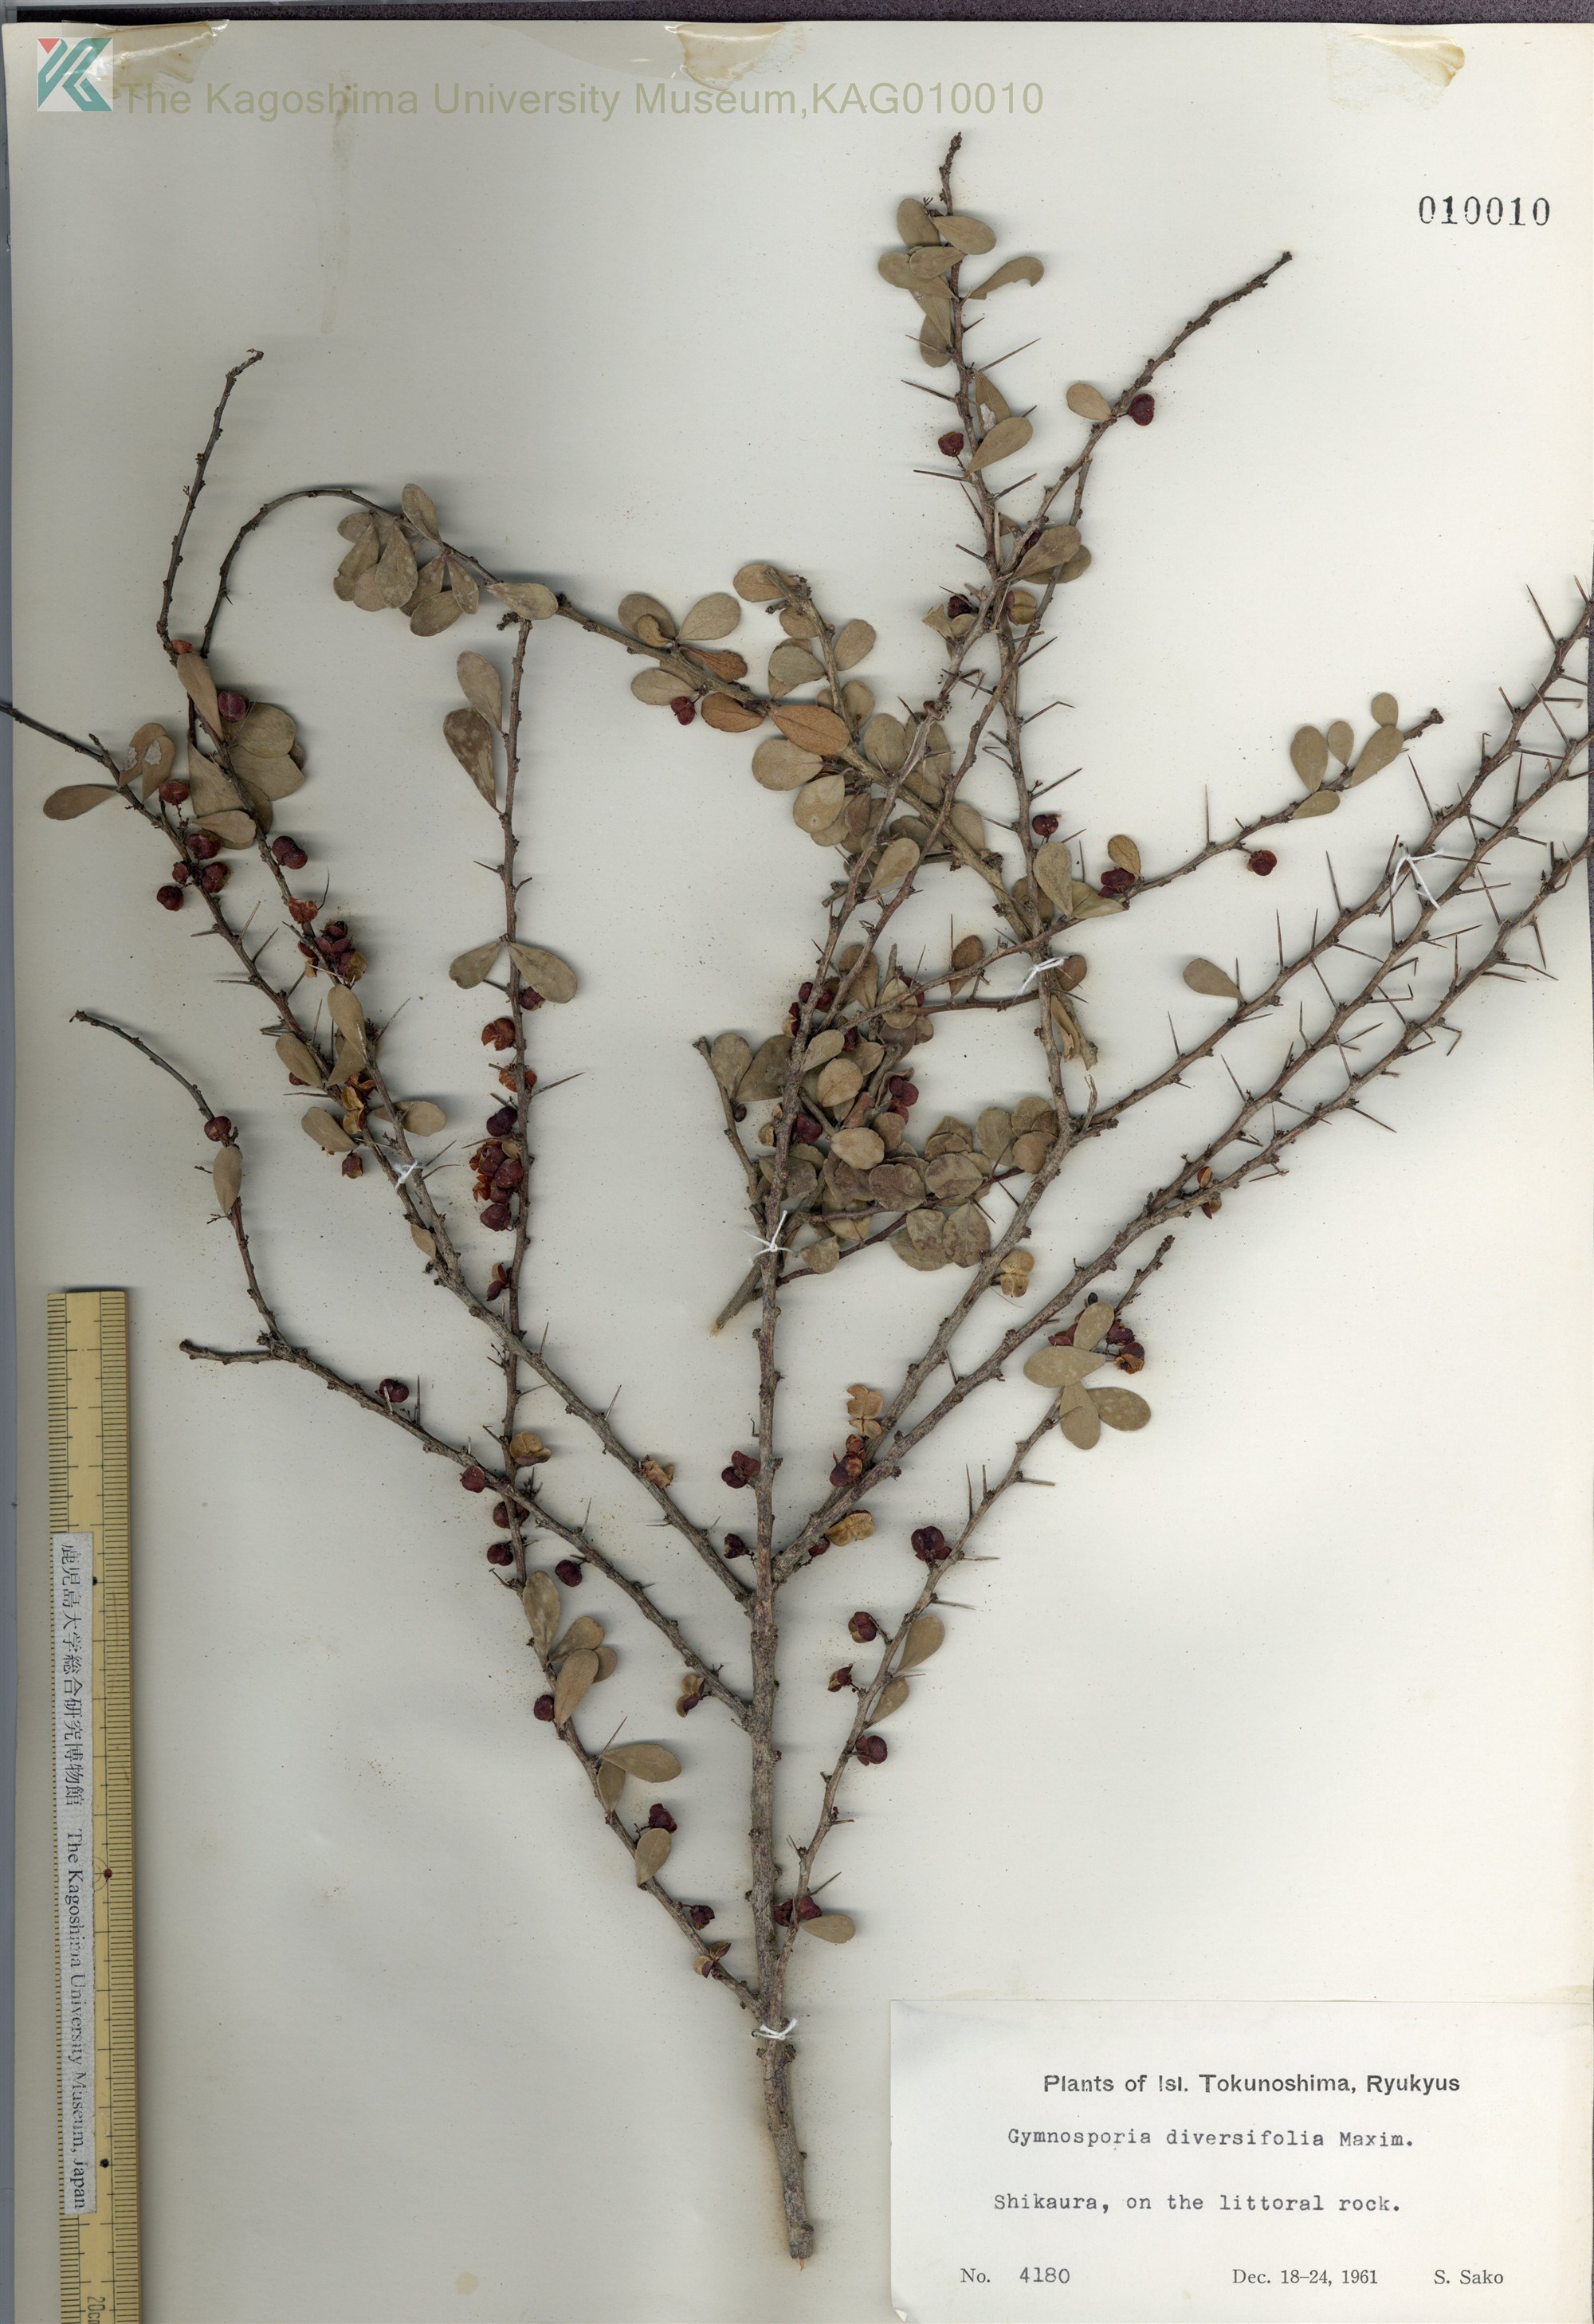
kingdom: Plantae
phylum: Tracheophyta
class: Magnoliopsida
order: Celastrales
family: Celastraceae
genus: Gymnosporia
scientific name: Gymnosporia diversifolia
